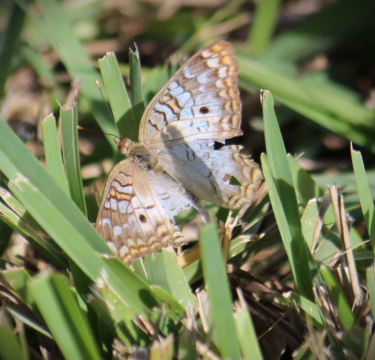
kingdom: Animalia
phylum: Arthropoda
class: Insecta
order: Lepidoptera
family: Nymphalidae
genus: Anartia
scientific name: Anartia jatrophae
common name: White Peacock
